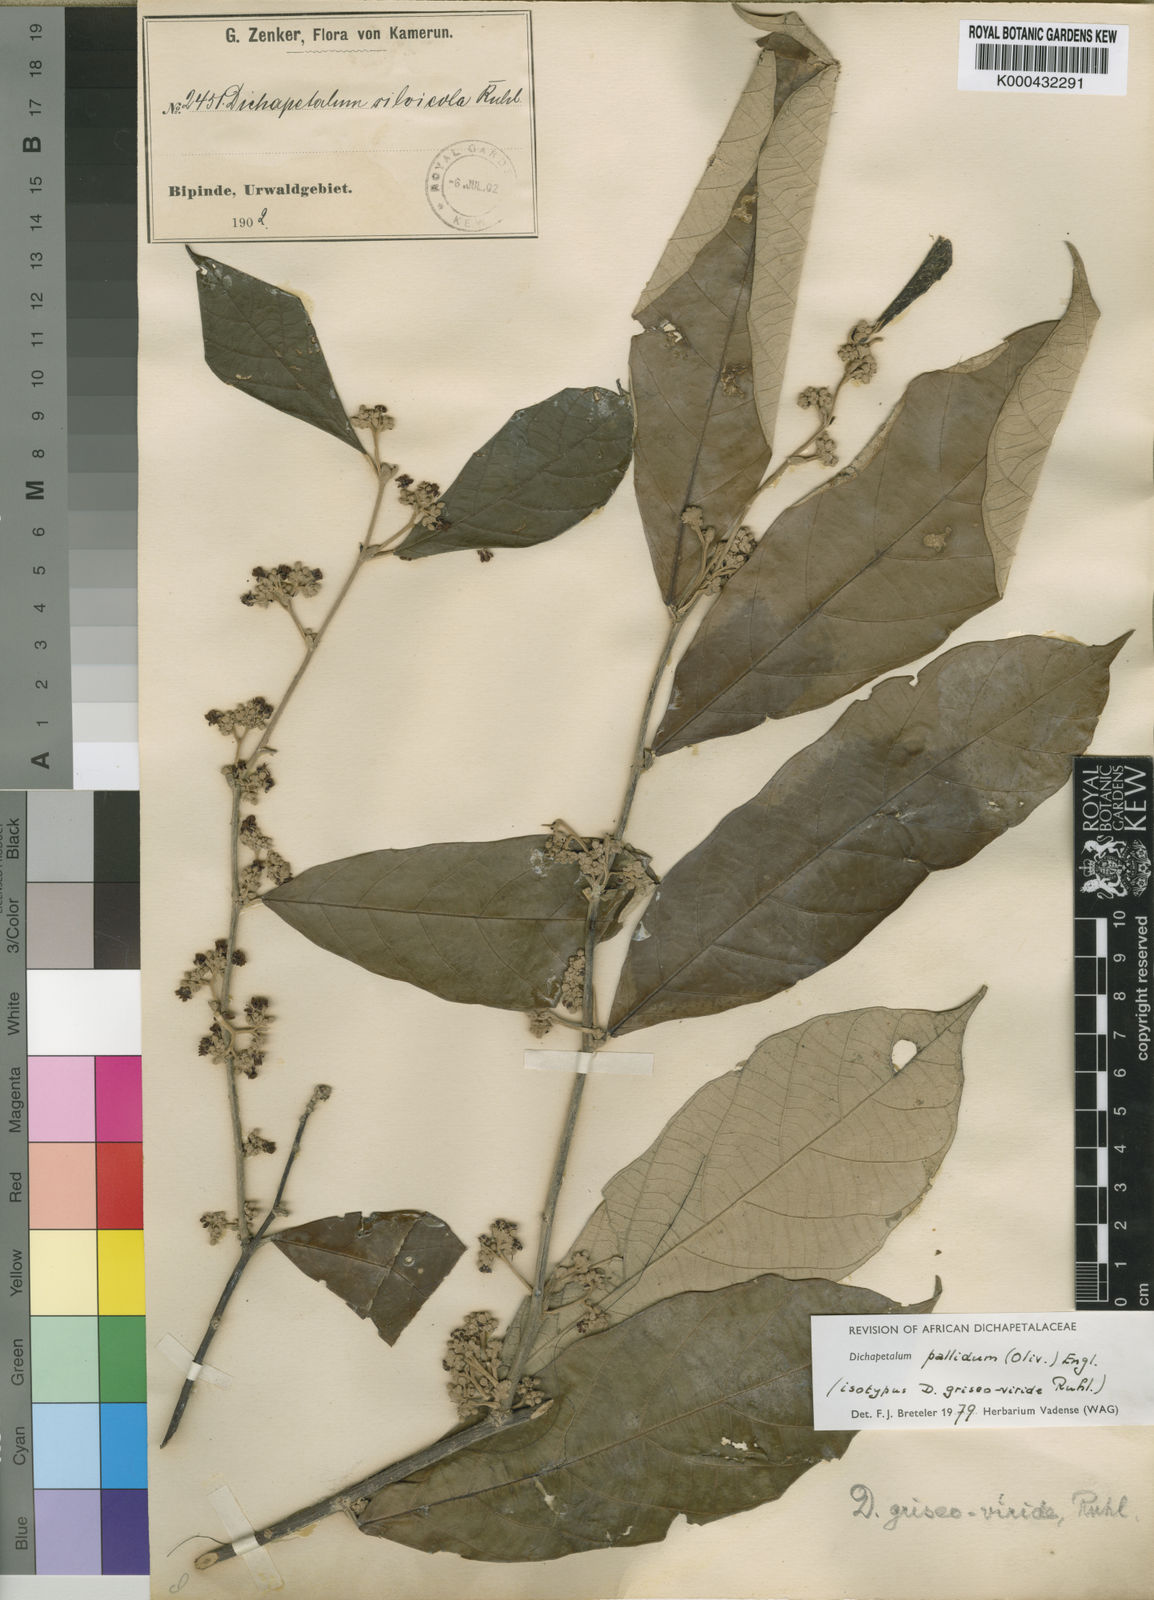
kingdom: Plantae
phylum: Tracheophyta
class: Magnoliopsida
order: Malpighiales
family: Dichapetalaceae
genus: Dichapetalum
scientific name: Dichapetalum pallidum
